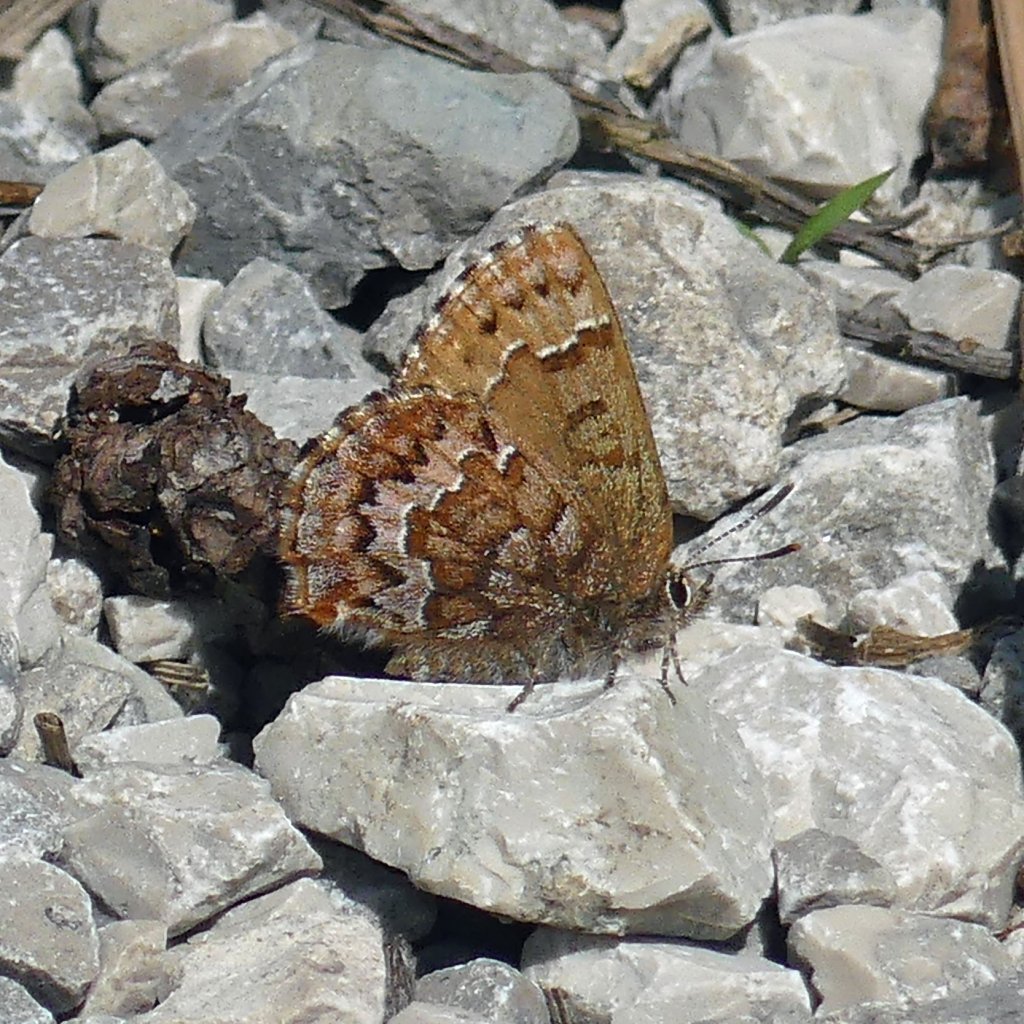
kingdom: Animalia
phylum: Arthropoda
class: Insecta
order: Lepidoptera
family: Lycaenidae
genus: Incisalia
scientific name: Incisalia niphon
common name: Eastern Pine Elfin
